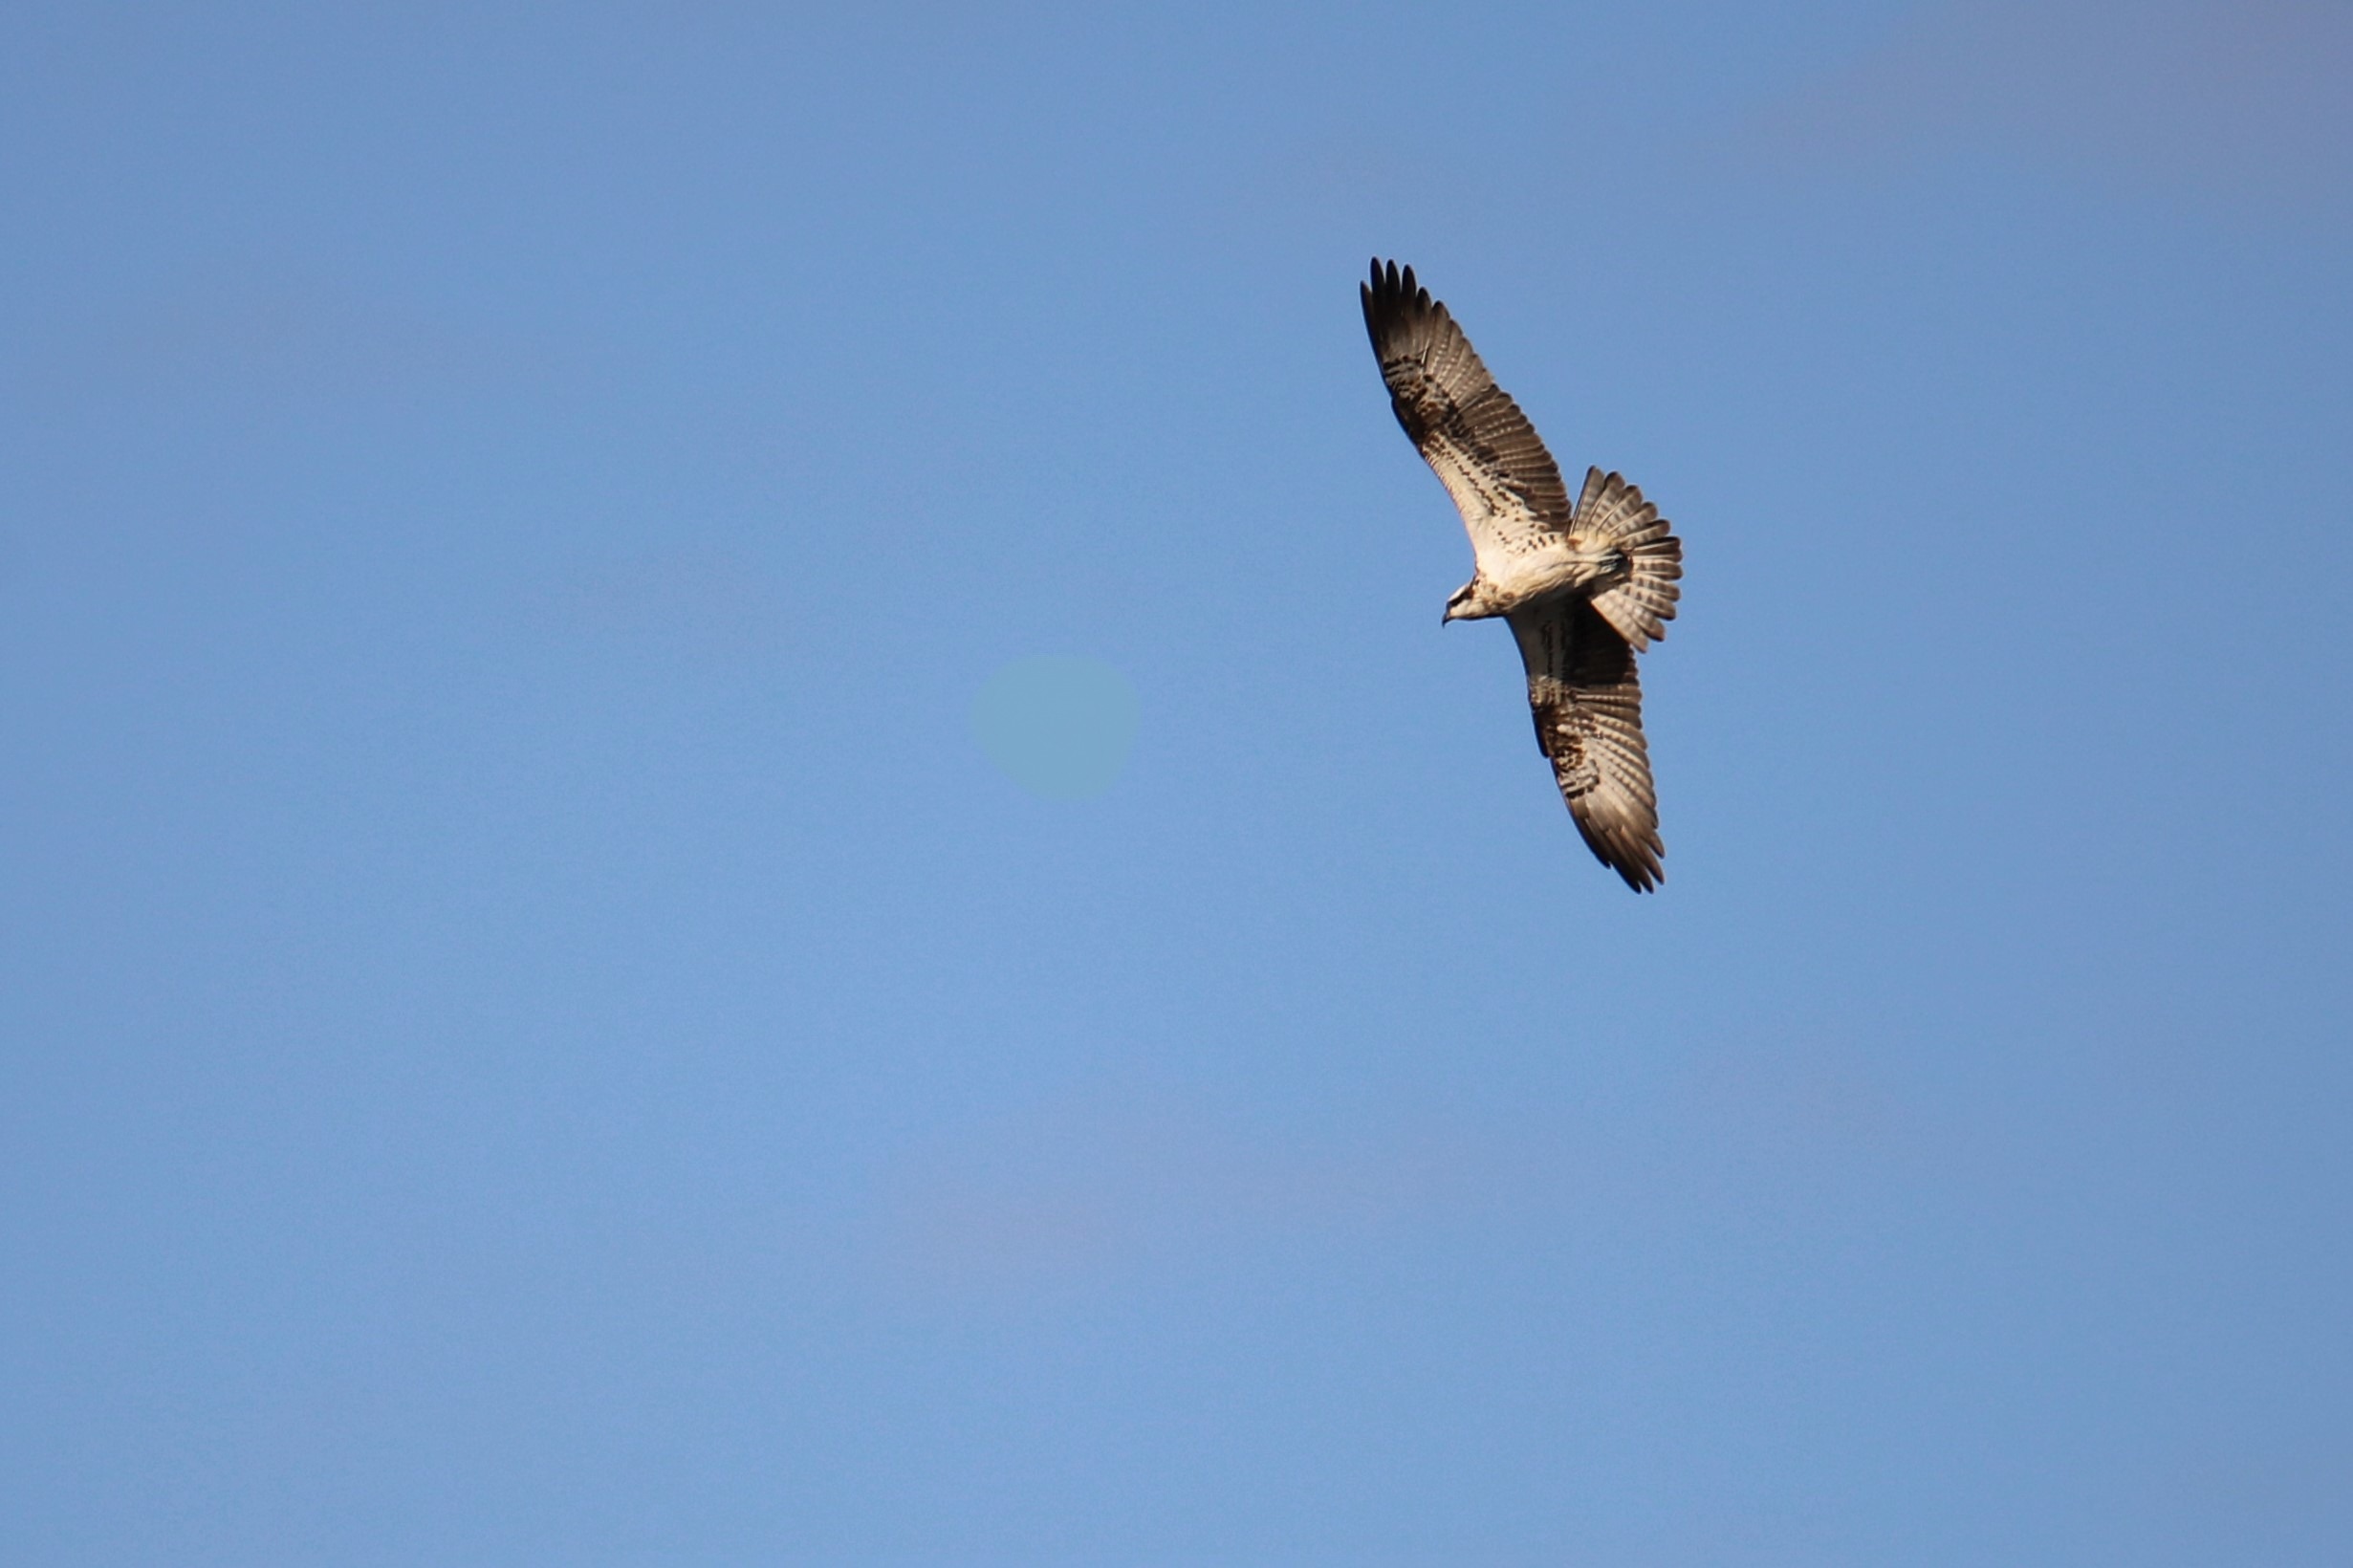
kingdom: Animalia
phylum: Chordata
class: Aves
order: Accipitriformes
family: Pandionidae
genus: Pandion
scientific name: Pandion haliaetus
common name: Fiskeørn
